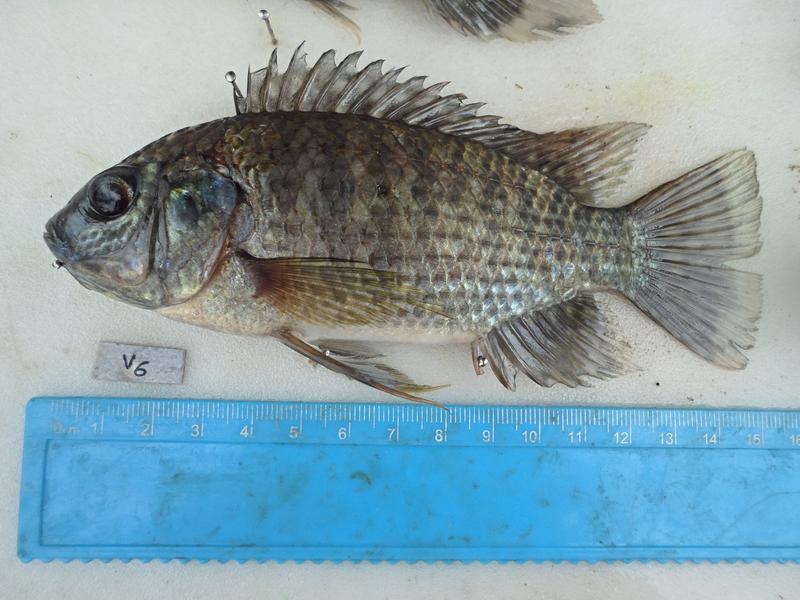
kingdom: Animalia
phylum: Chordata
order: Perciformes
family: Cichlidae
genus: Oreochromis
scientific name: Oreochromis leucostictus
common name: Blue spotted tilapia
